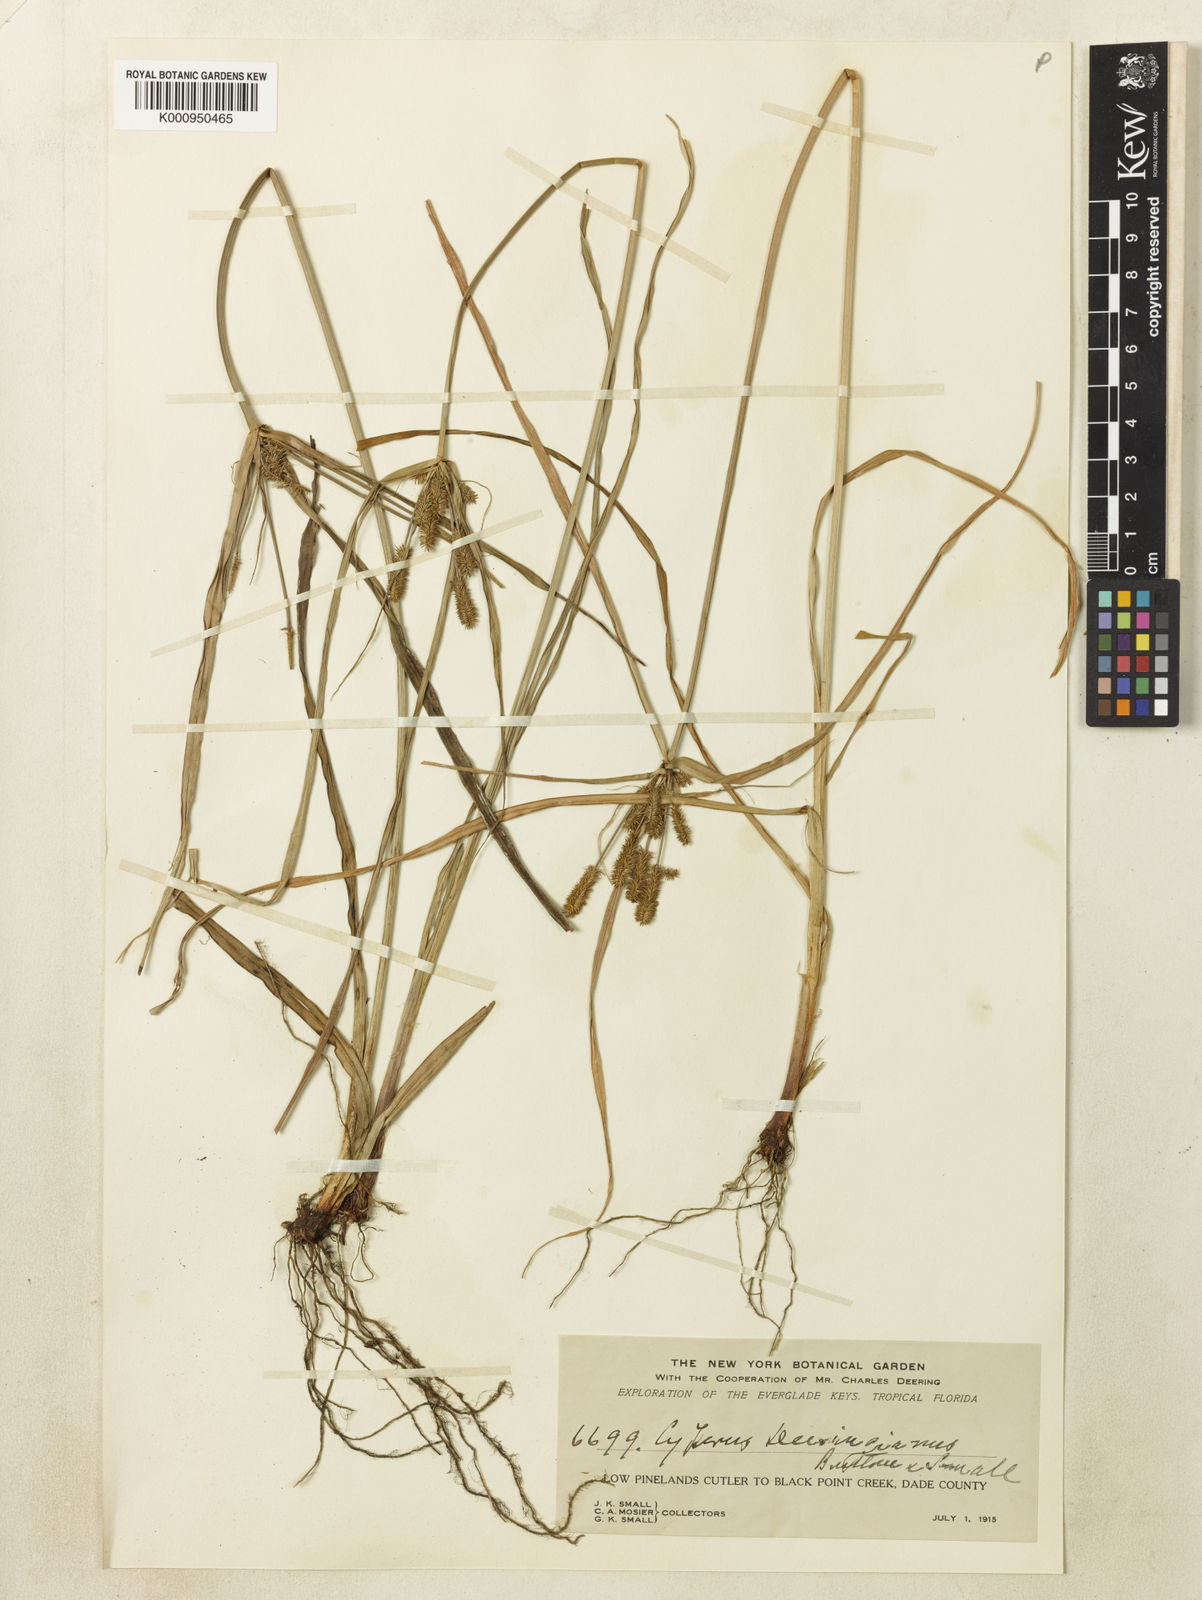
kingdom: Plantae
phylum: Tracheophyta
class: Liliopsida
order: Poales
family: Cyperaceae
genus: Cyperus
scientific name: Cyperus ovatus
